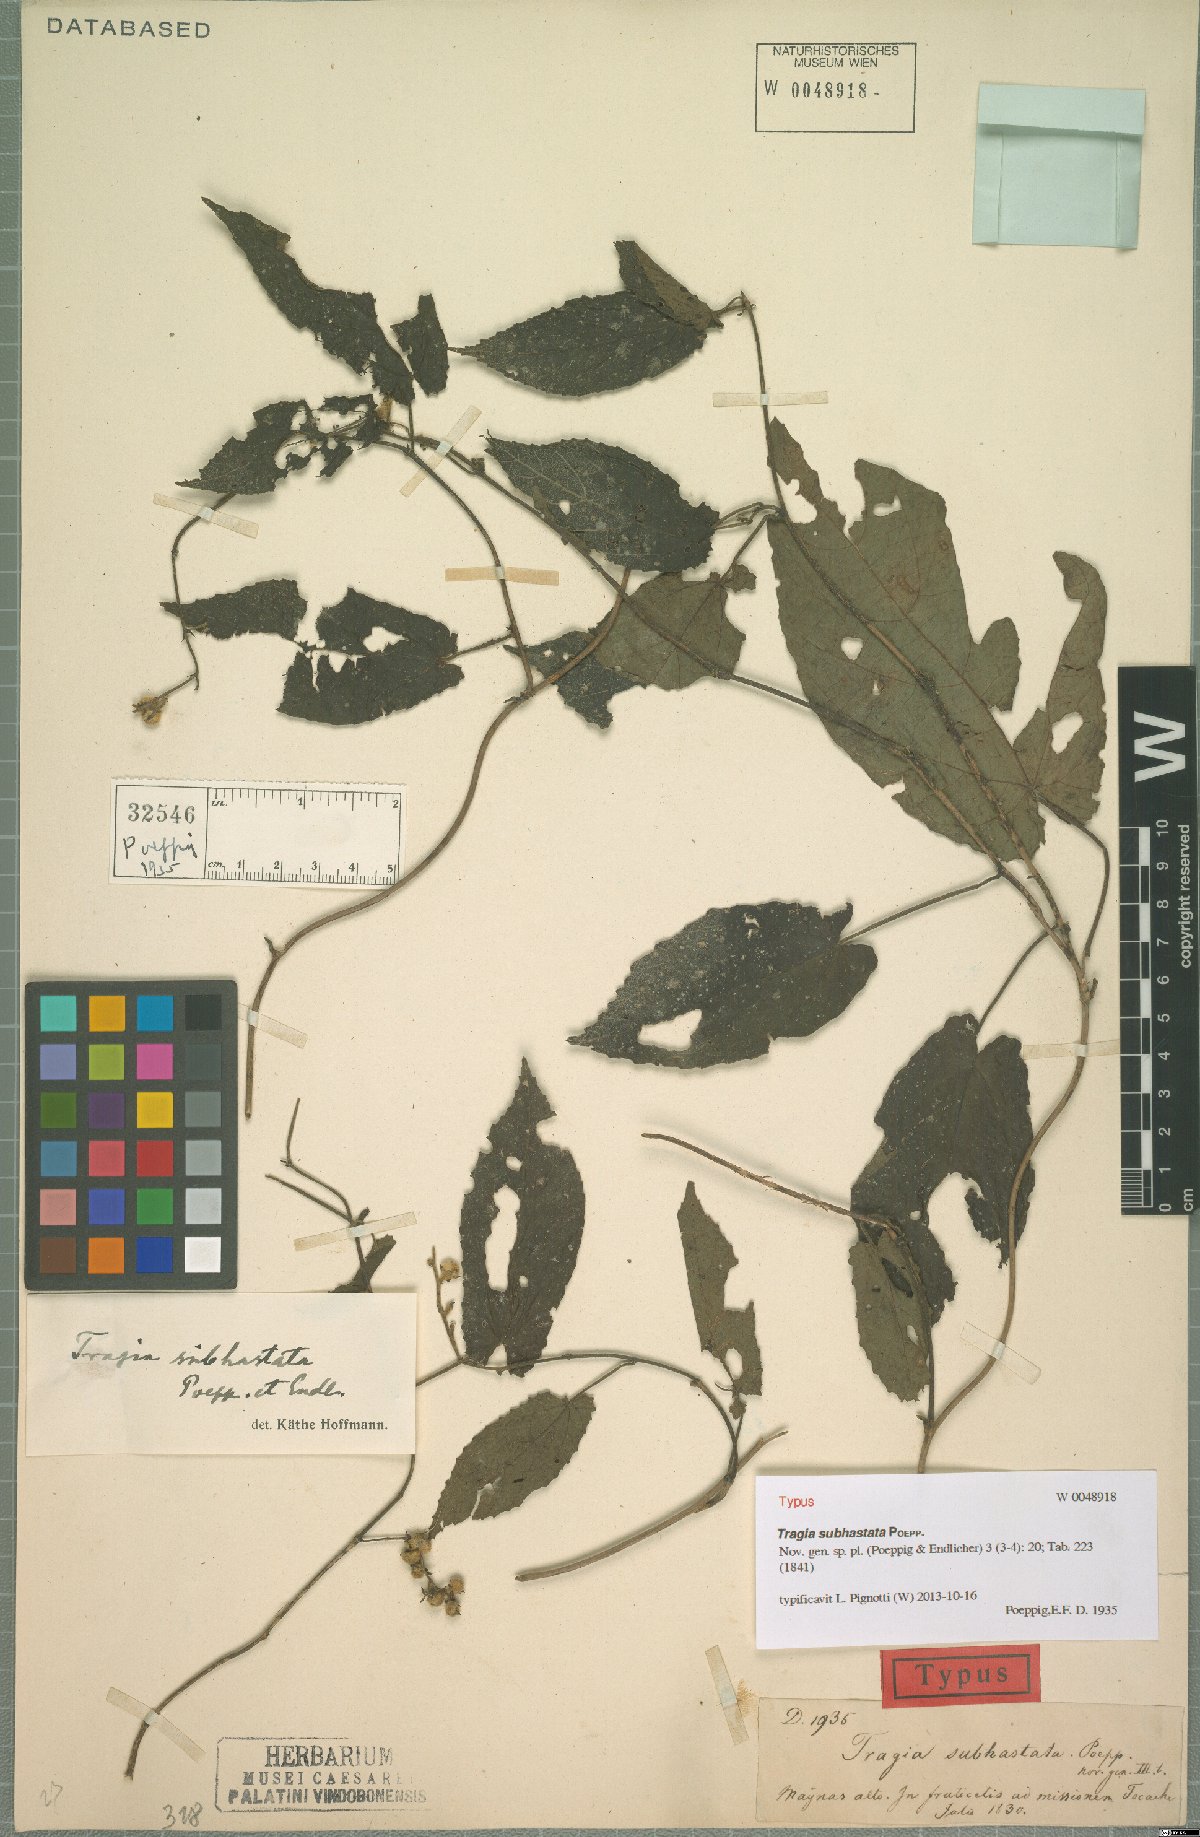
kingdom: Plantae
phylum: Tracheophyta
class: Magnoliopsida
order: Malpighiales
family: Euphorbiaceae
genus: Tragia
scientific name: Tragia subhastata
